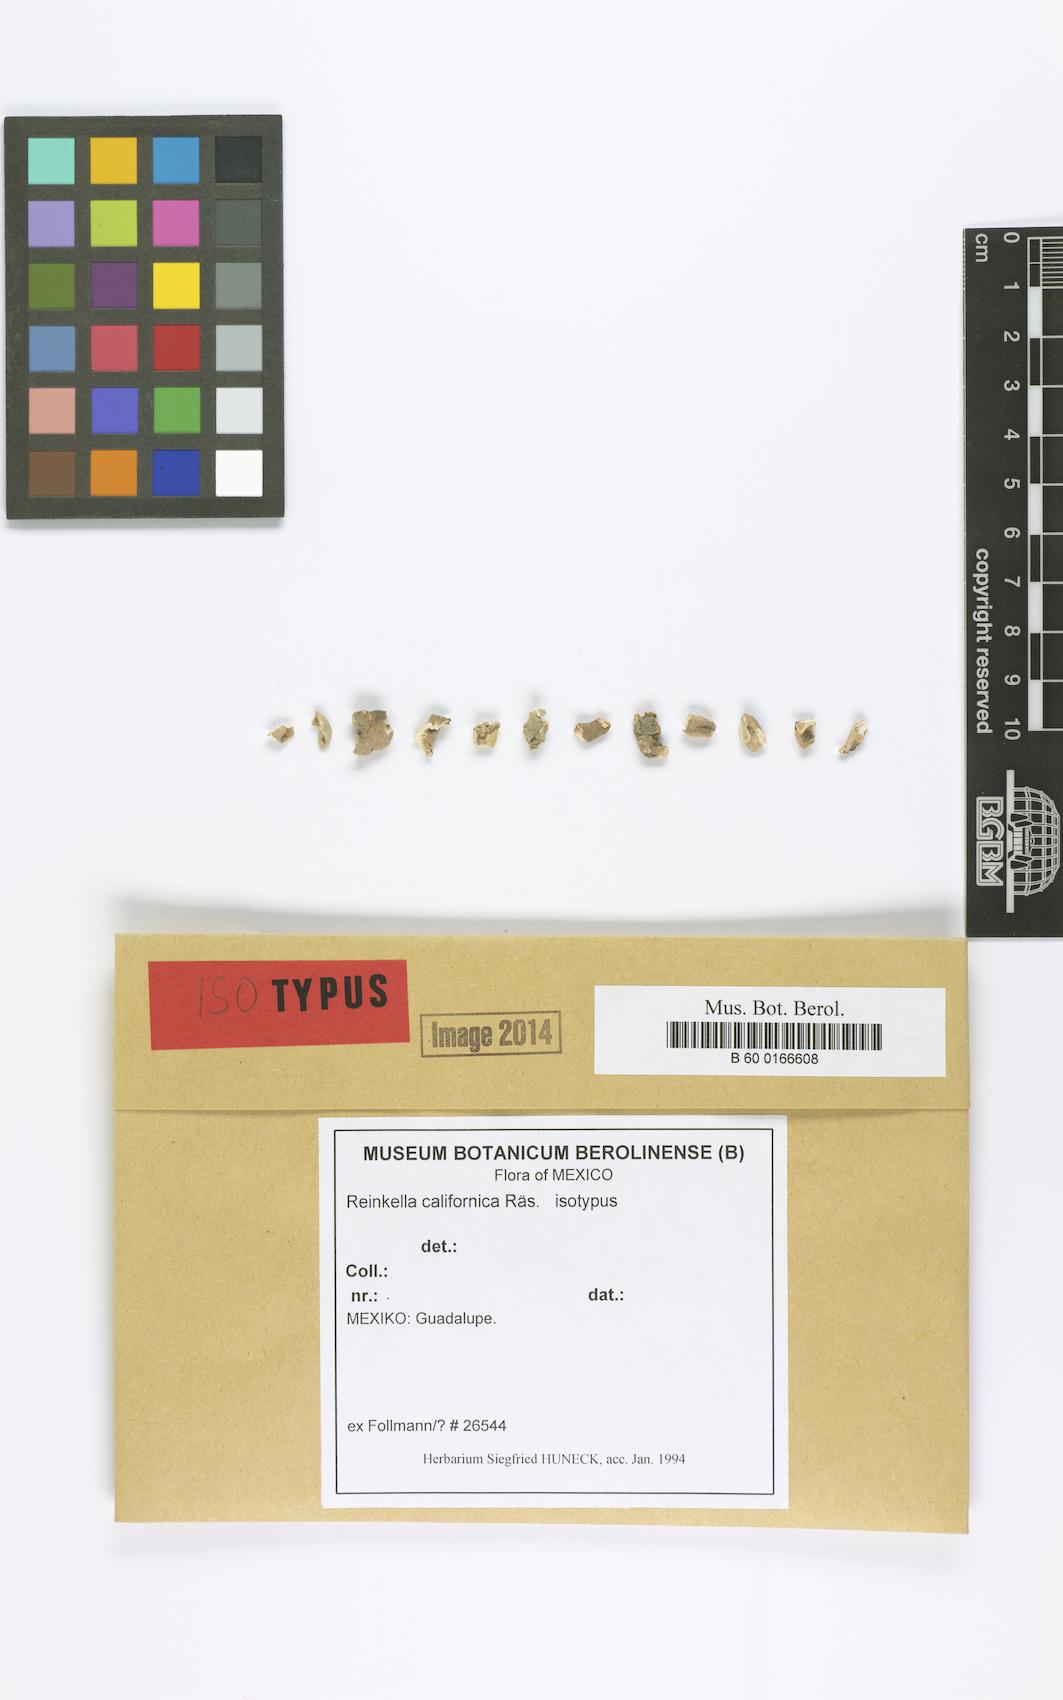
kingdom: Fungi
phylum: Ascomycota
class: Arthoniomycetes
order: Arthoniales
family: Roccellaceae
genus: Hubbsia
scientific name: Hubbsia californica
